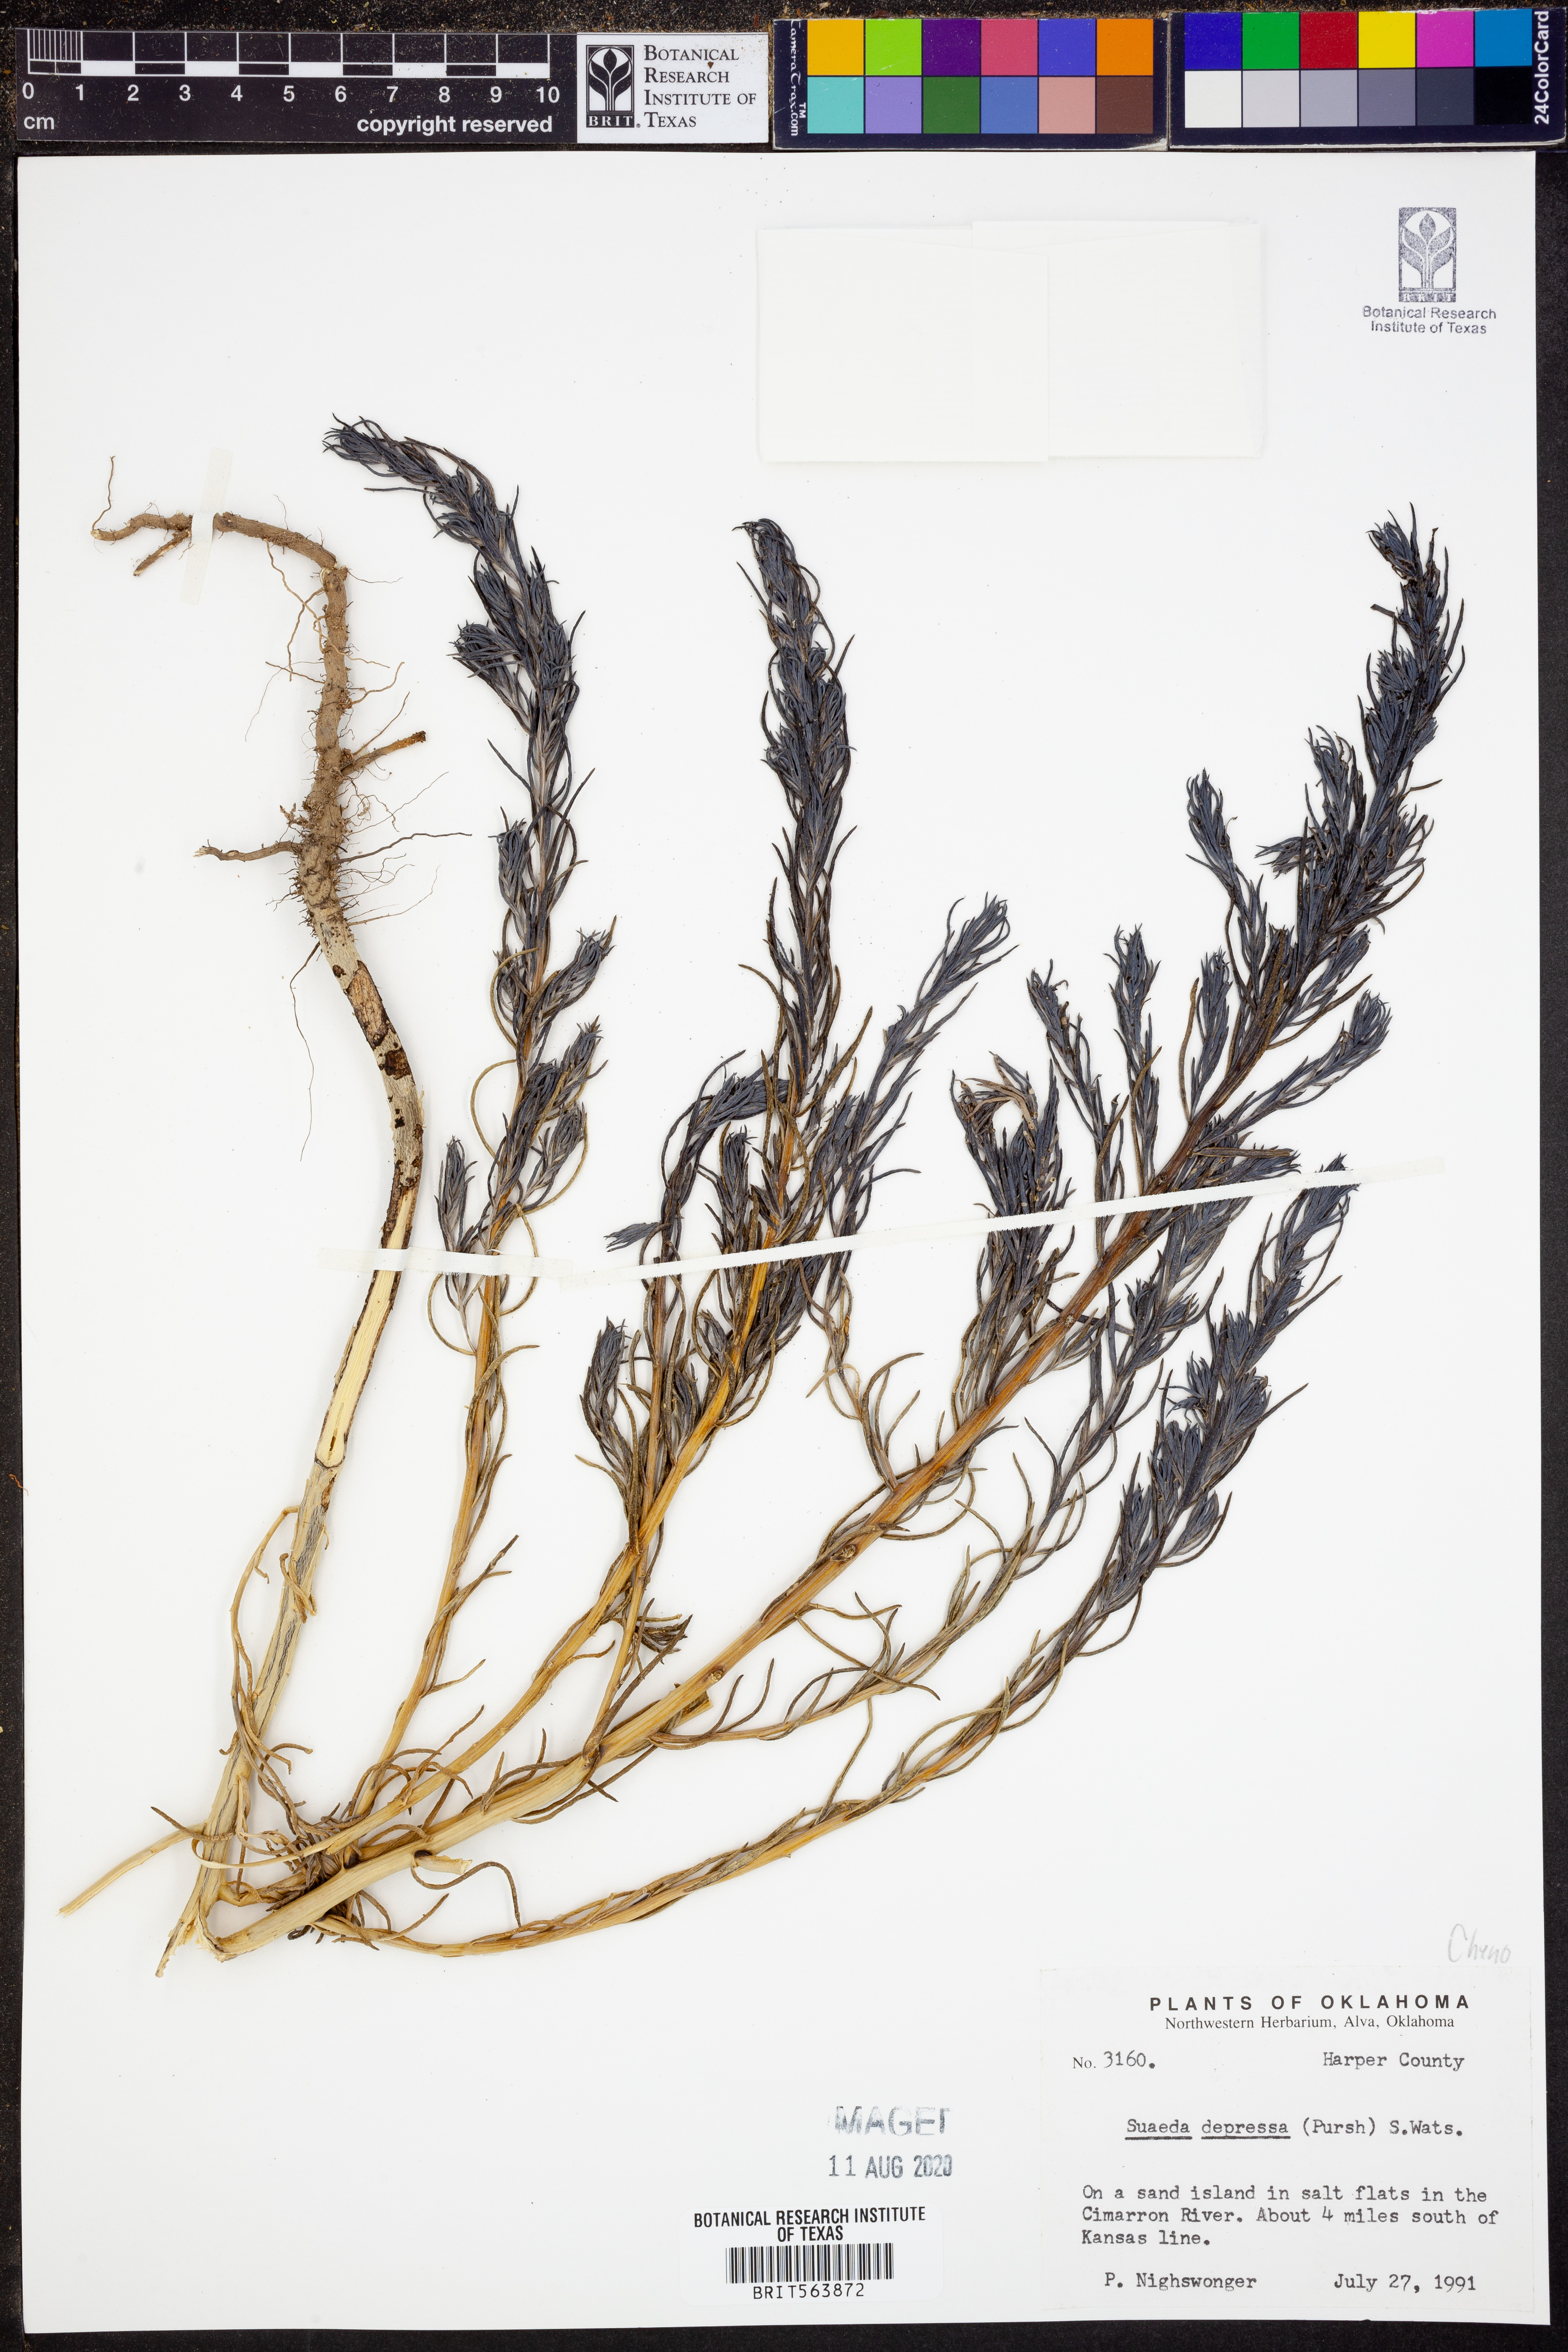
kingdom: Plantae
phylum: Tracheophyta
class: Magnoliopsida
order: Caryophyllales
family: Amaranthaceae
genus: Suaeda
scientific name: Suaeda calceoliformis
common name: Pursh's seepweed
